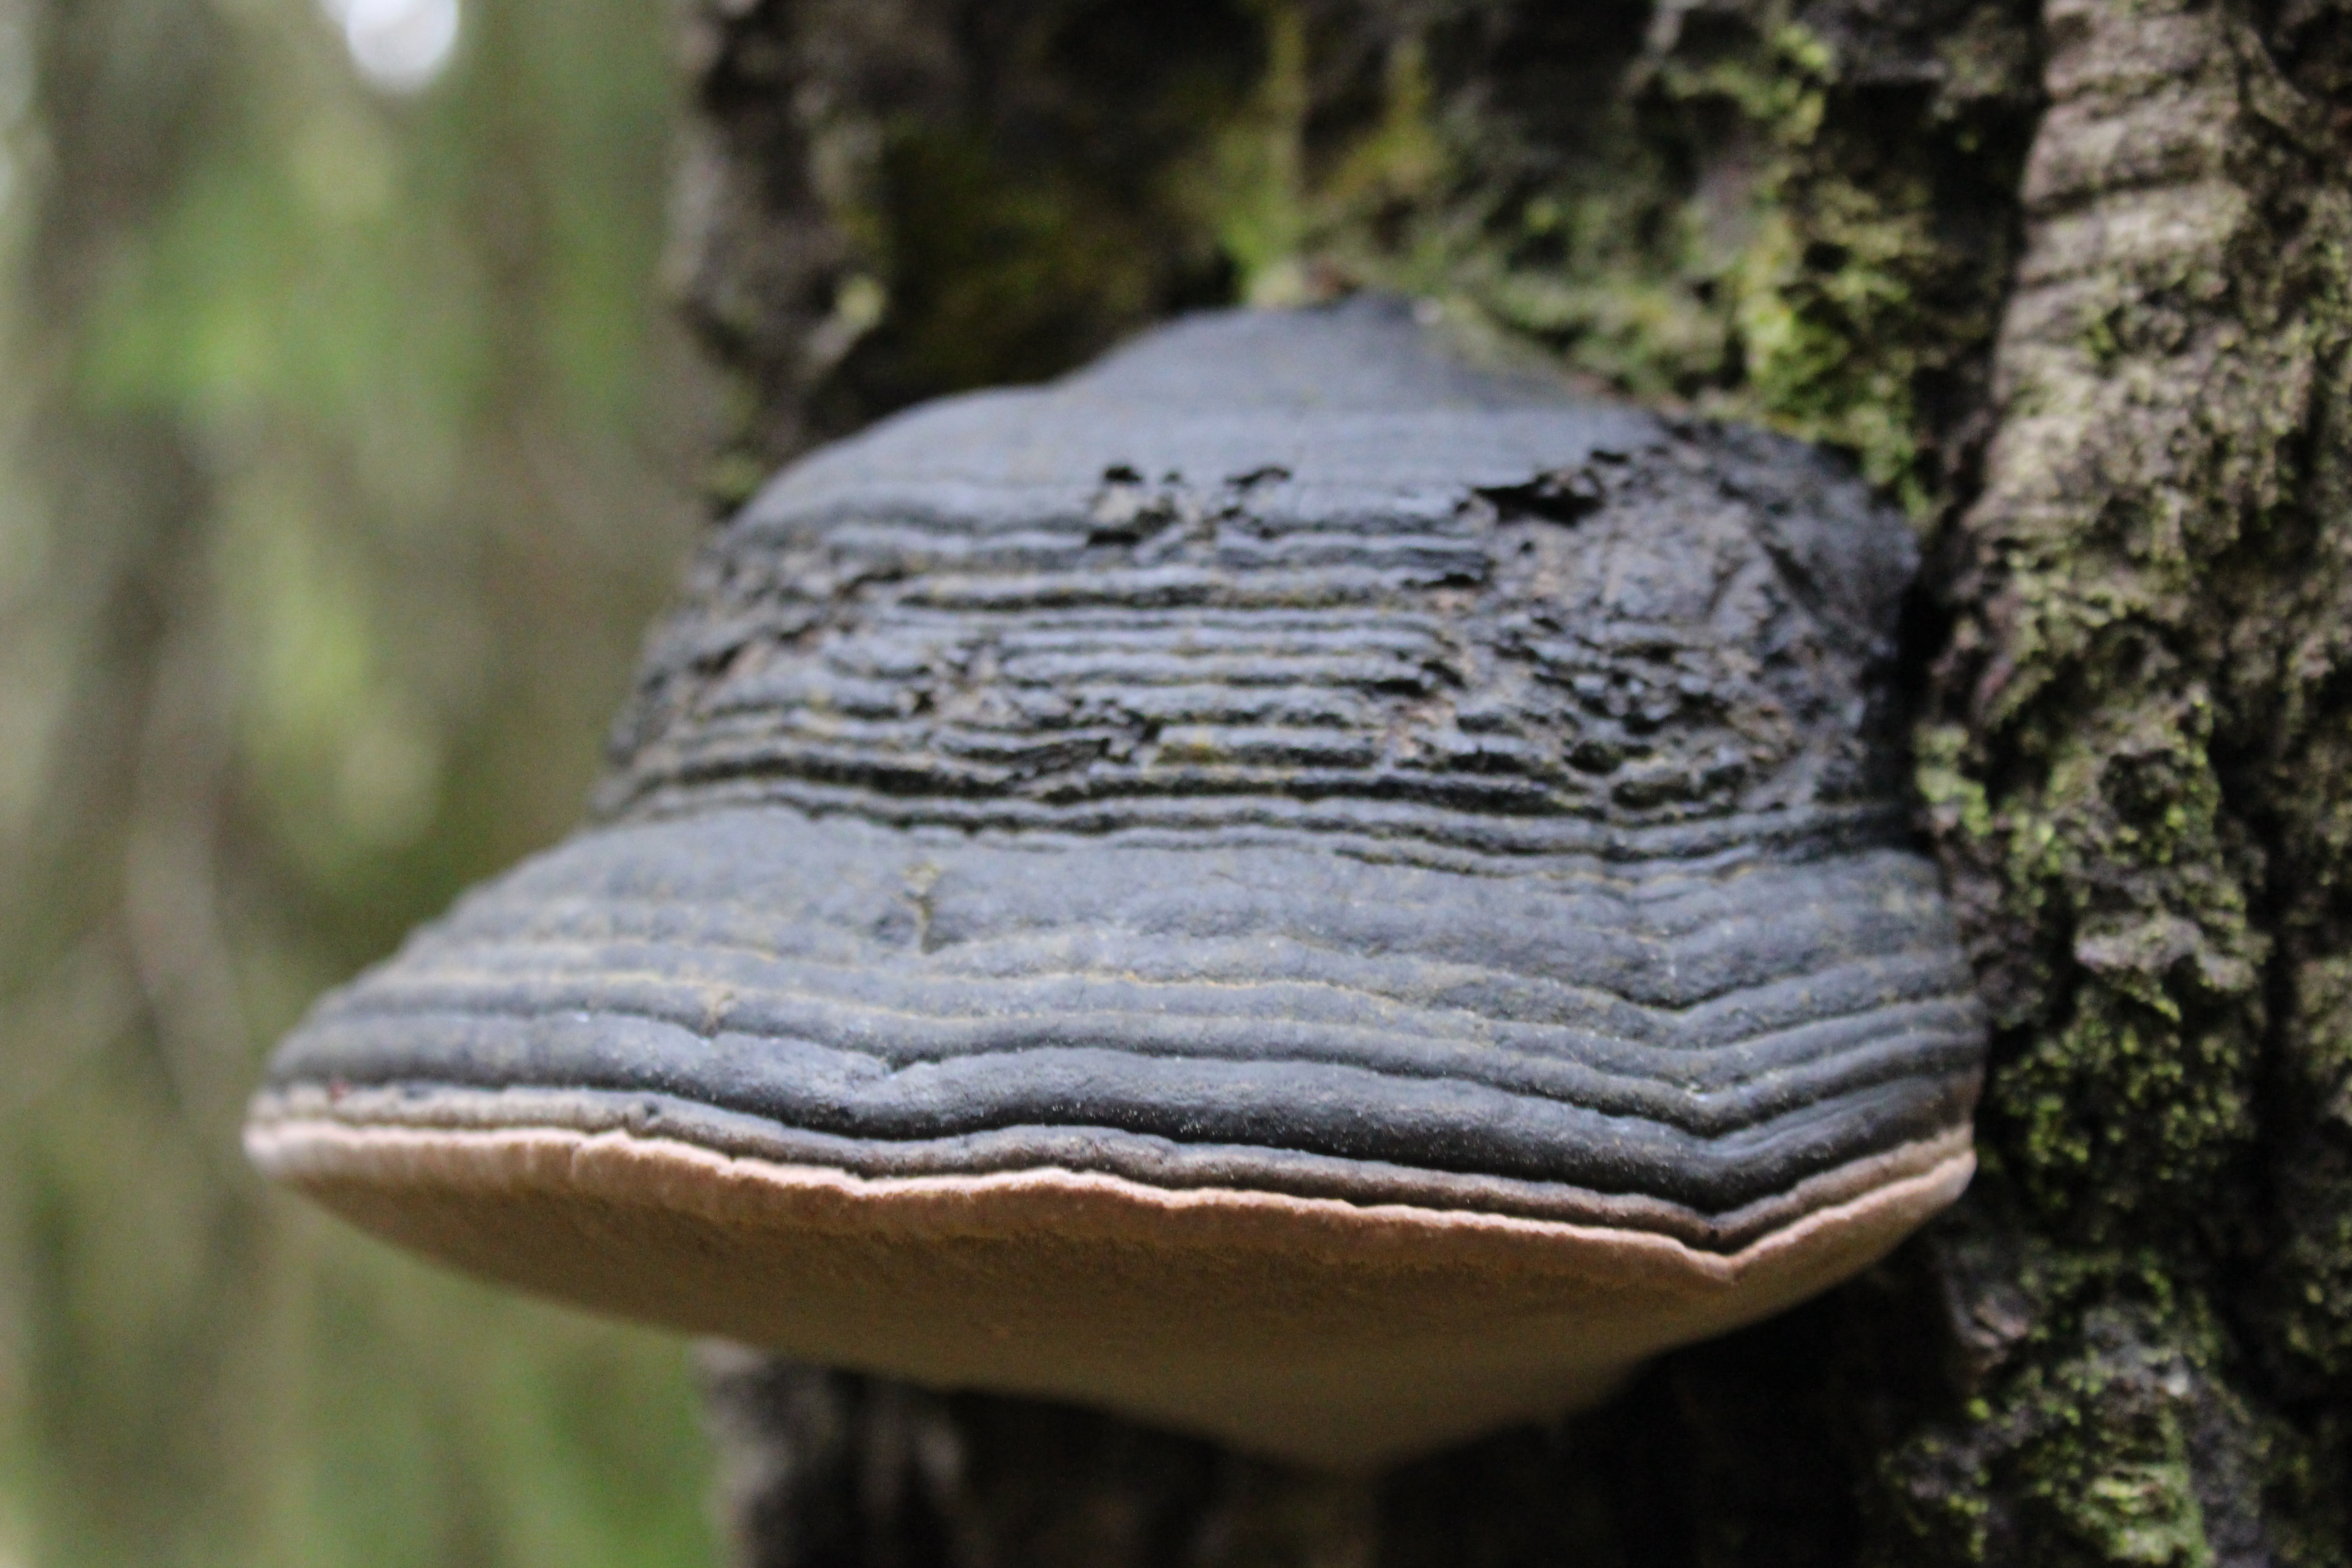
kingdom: Fungi
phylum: Basidiomycota
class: Agaricomycetes
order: Hymenochaetales
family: Hymenochaetaceae
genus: Phellinus
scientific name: Phellinus populicola
